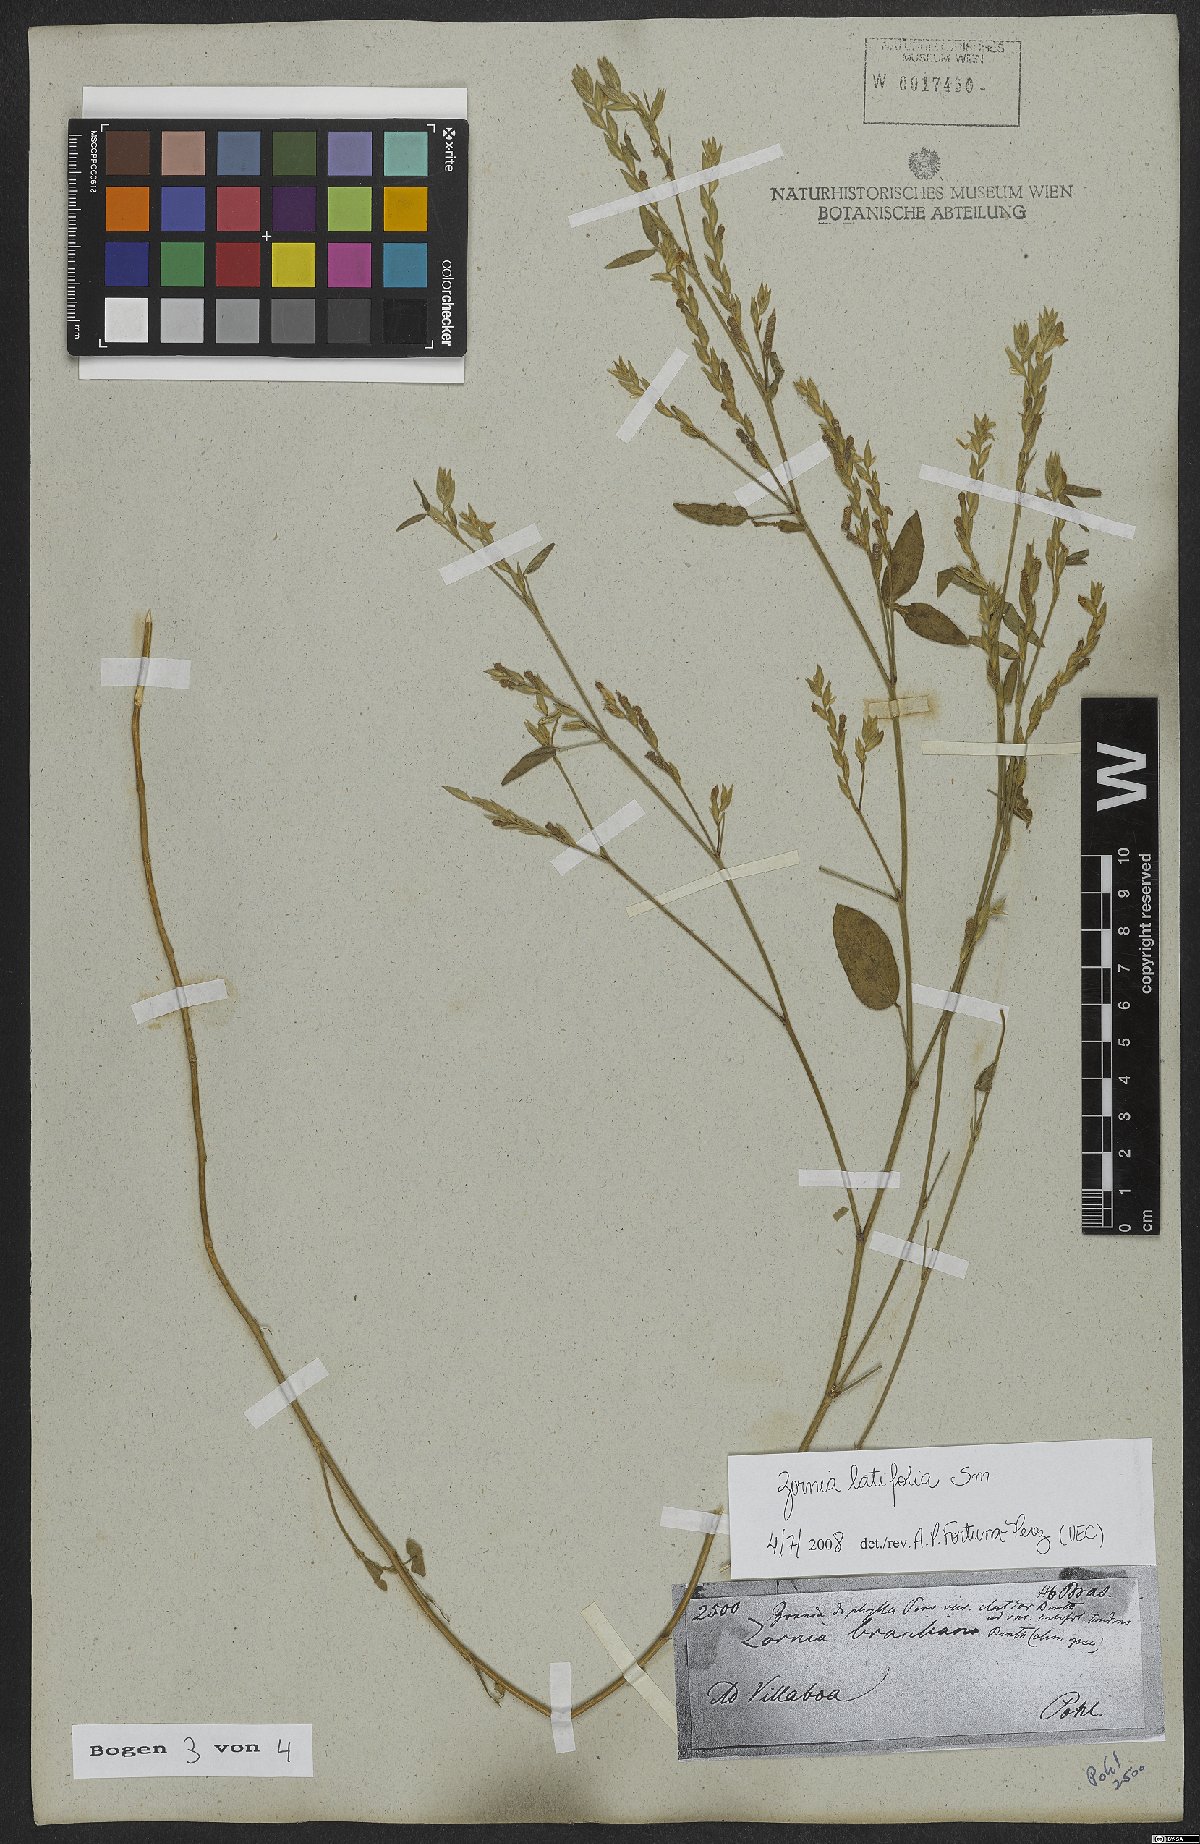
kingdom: Plantae
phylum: Tracheophyta
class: Magnoliopsida
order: Fabales
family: Fabaceae
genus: Zornia
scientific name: Zornia sericea
